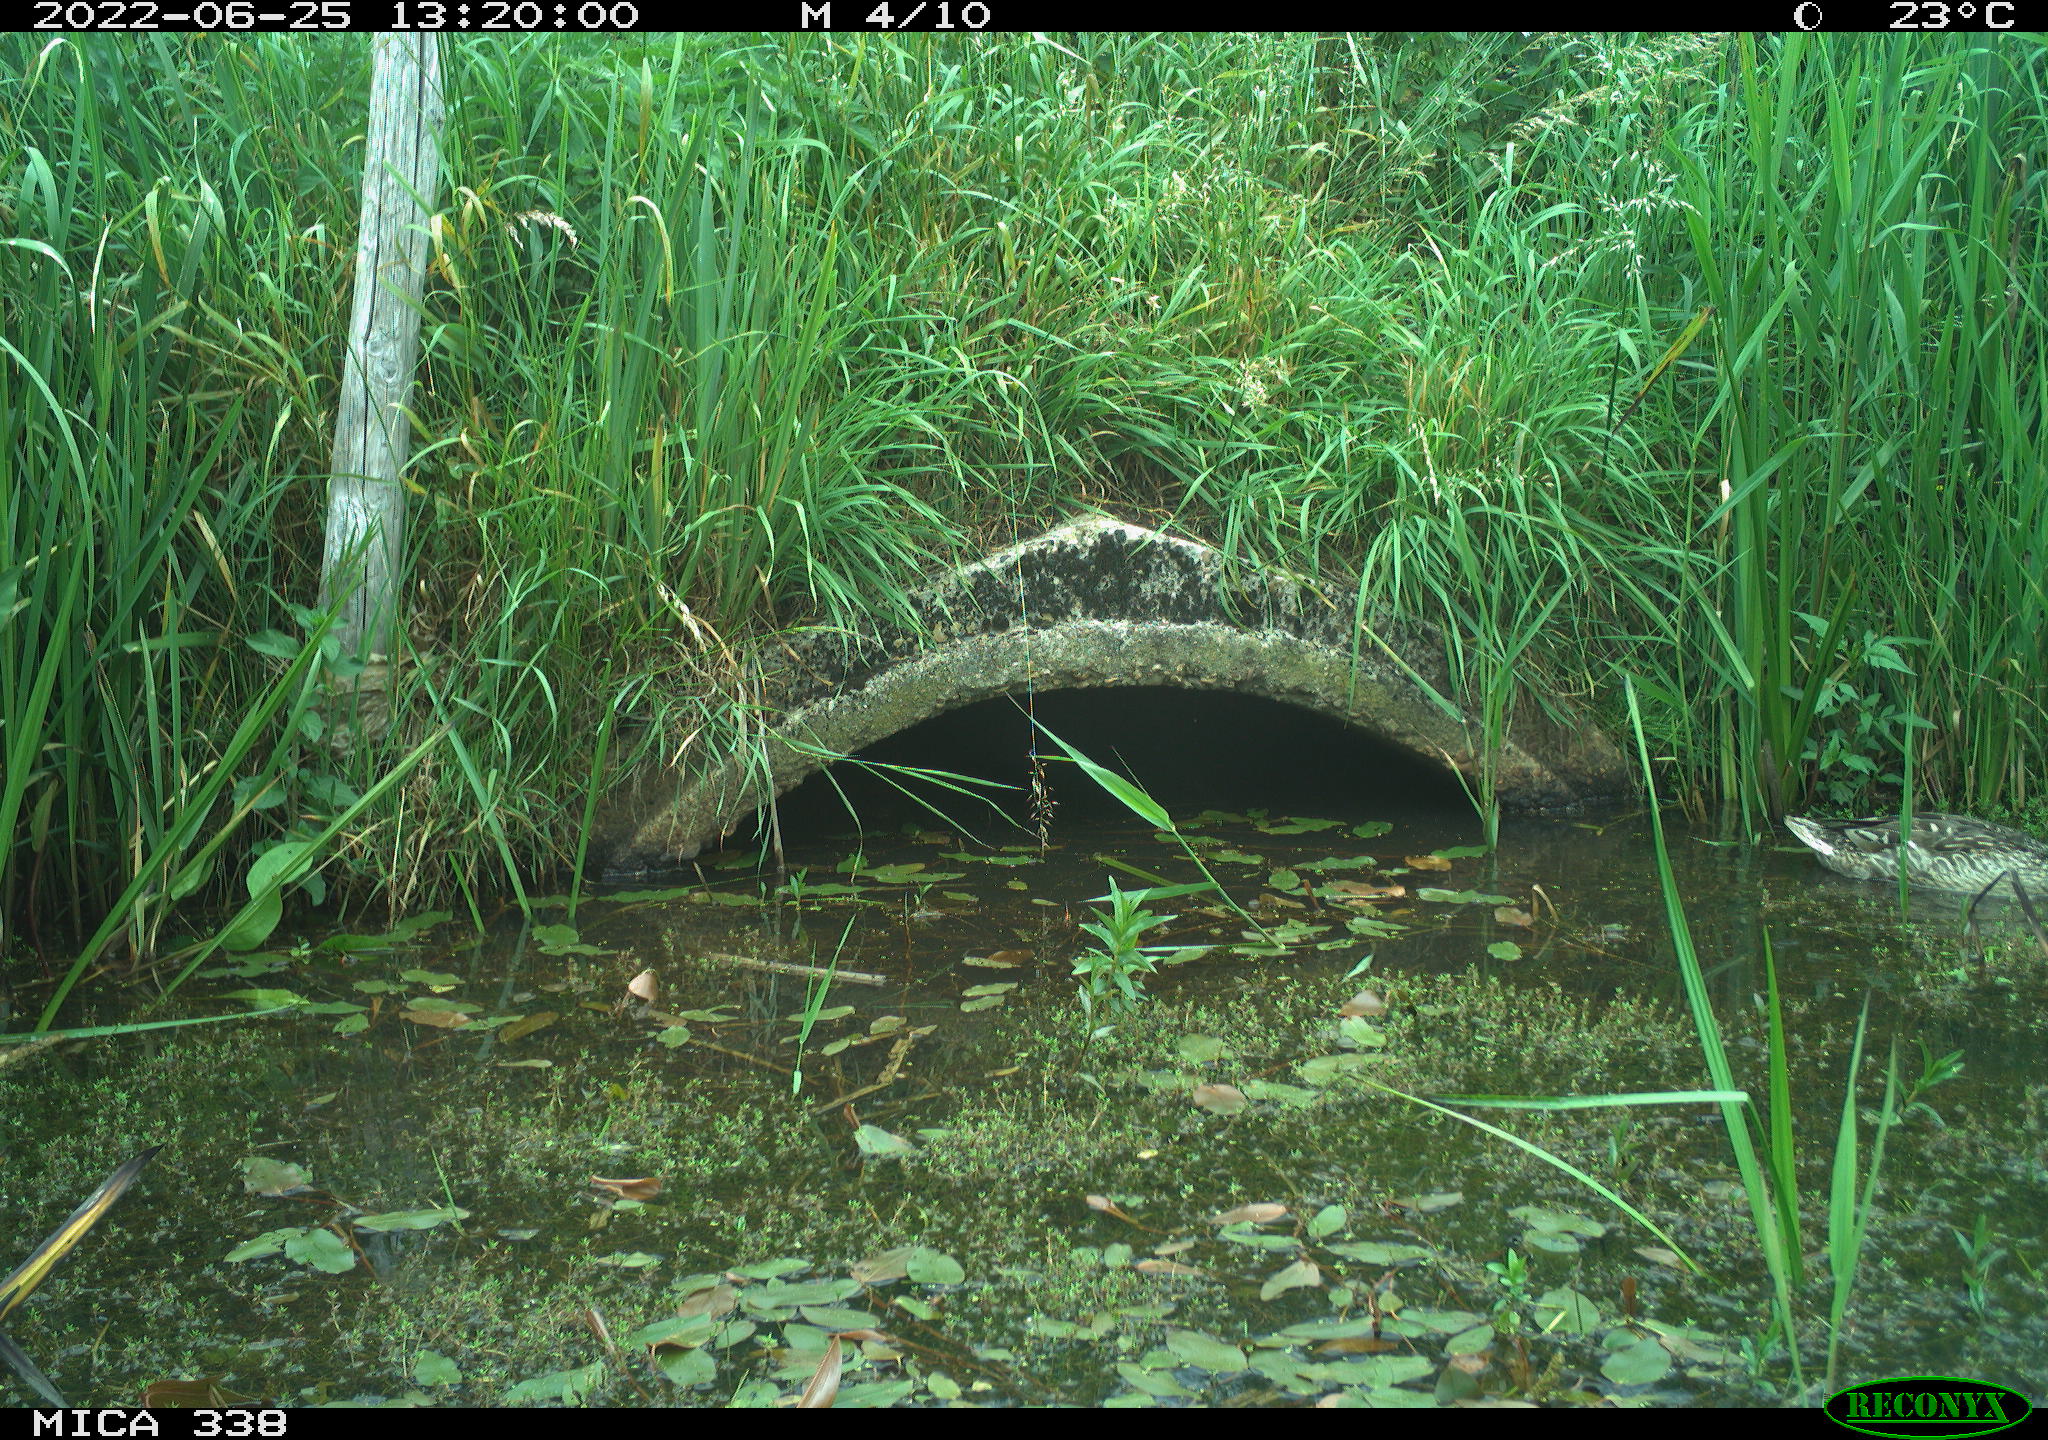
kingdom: Animalia
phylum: Chordata
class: Aves
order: Anseriformes
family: Anatidae
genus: Anas
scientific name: Anas platyrhynchos
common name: Mallard
